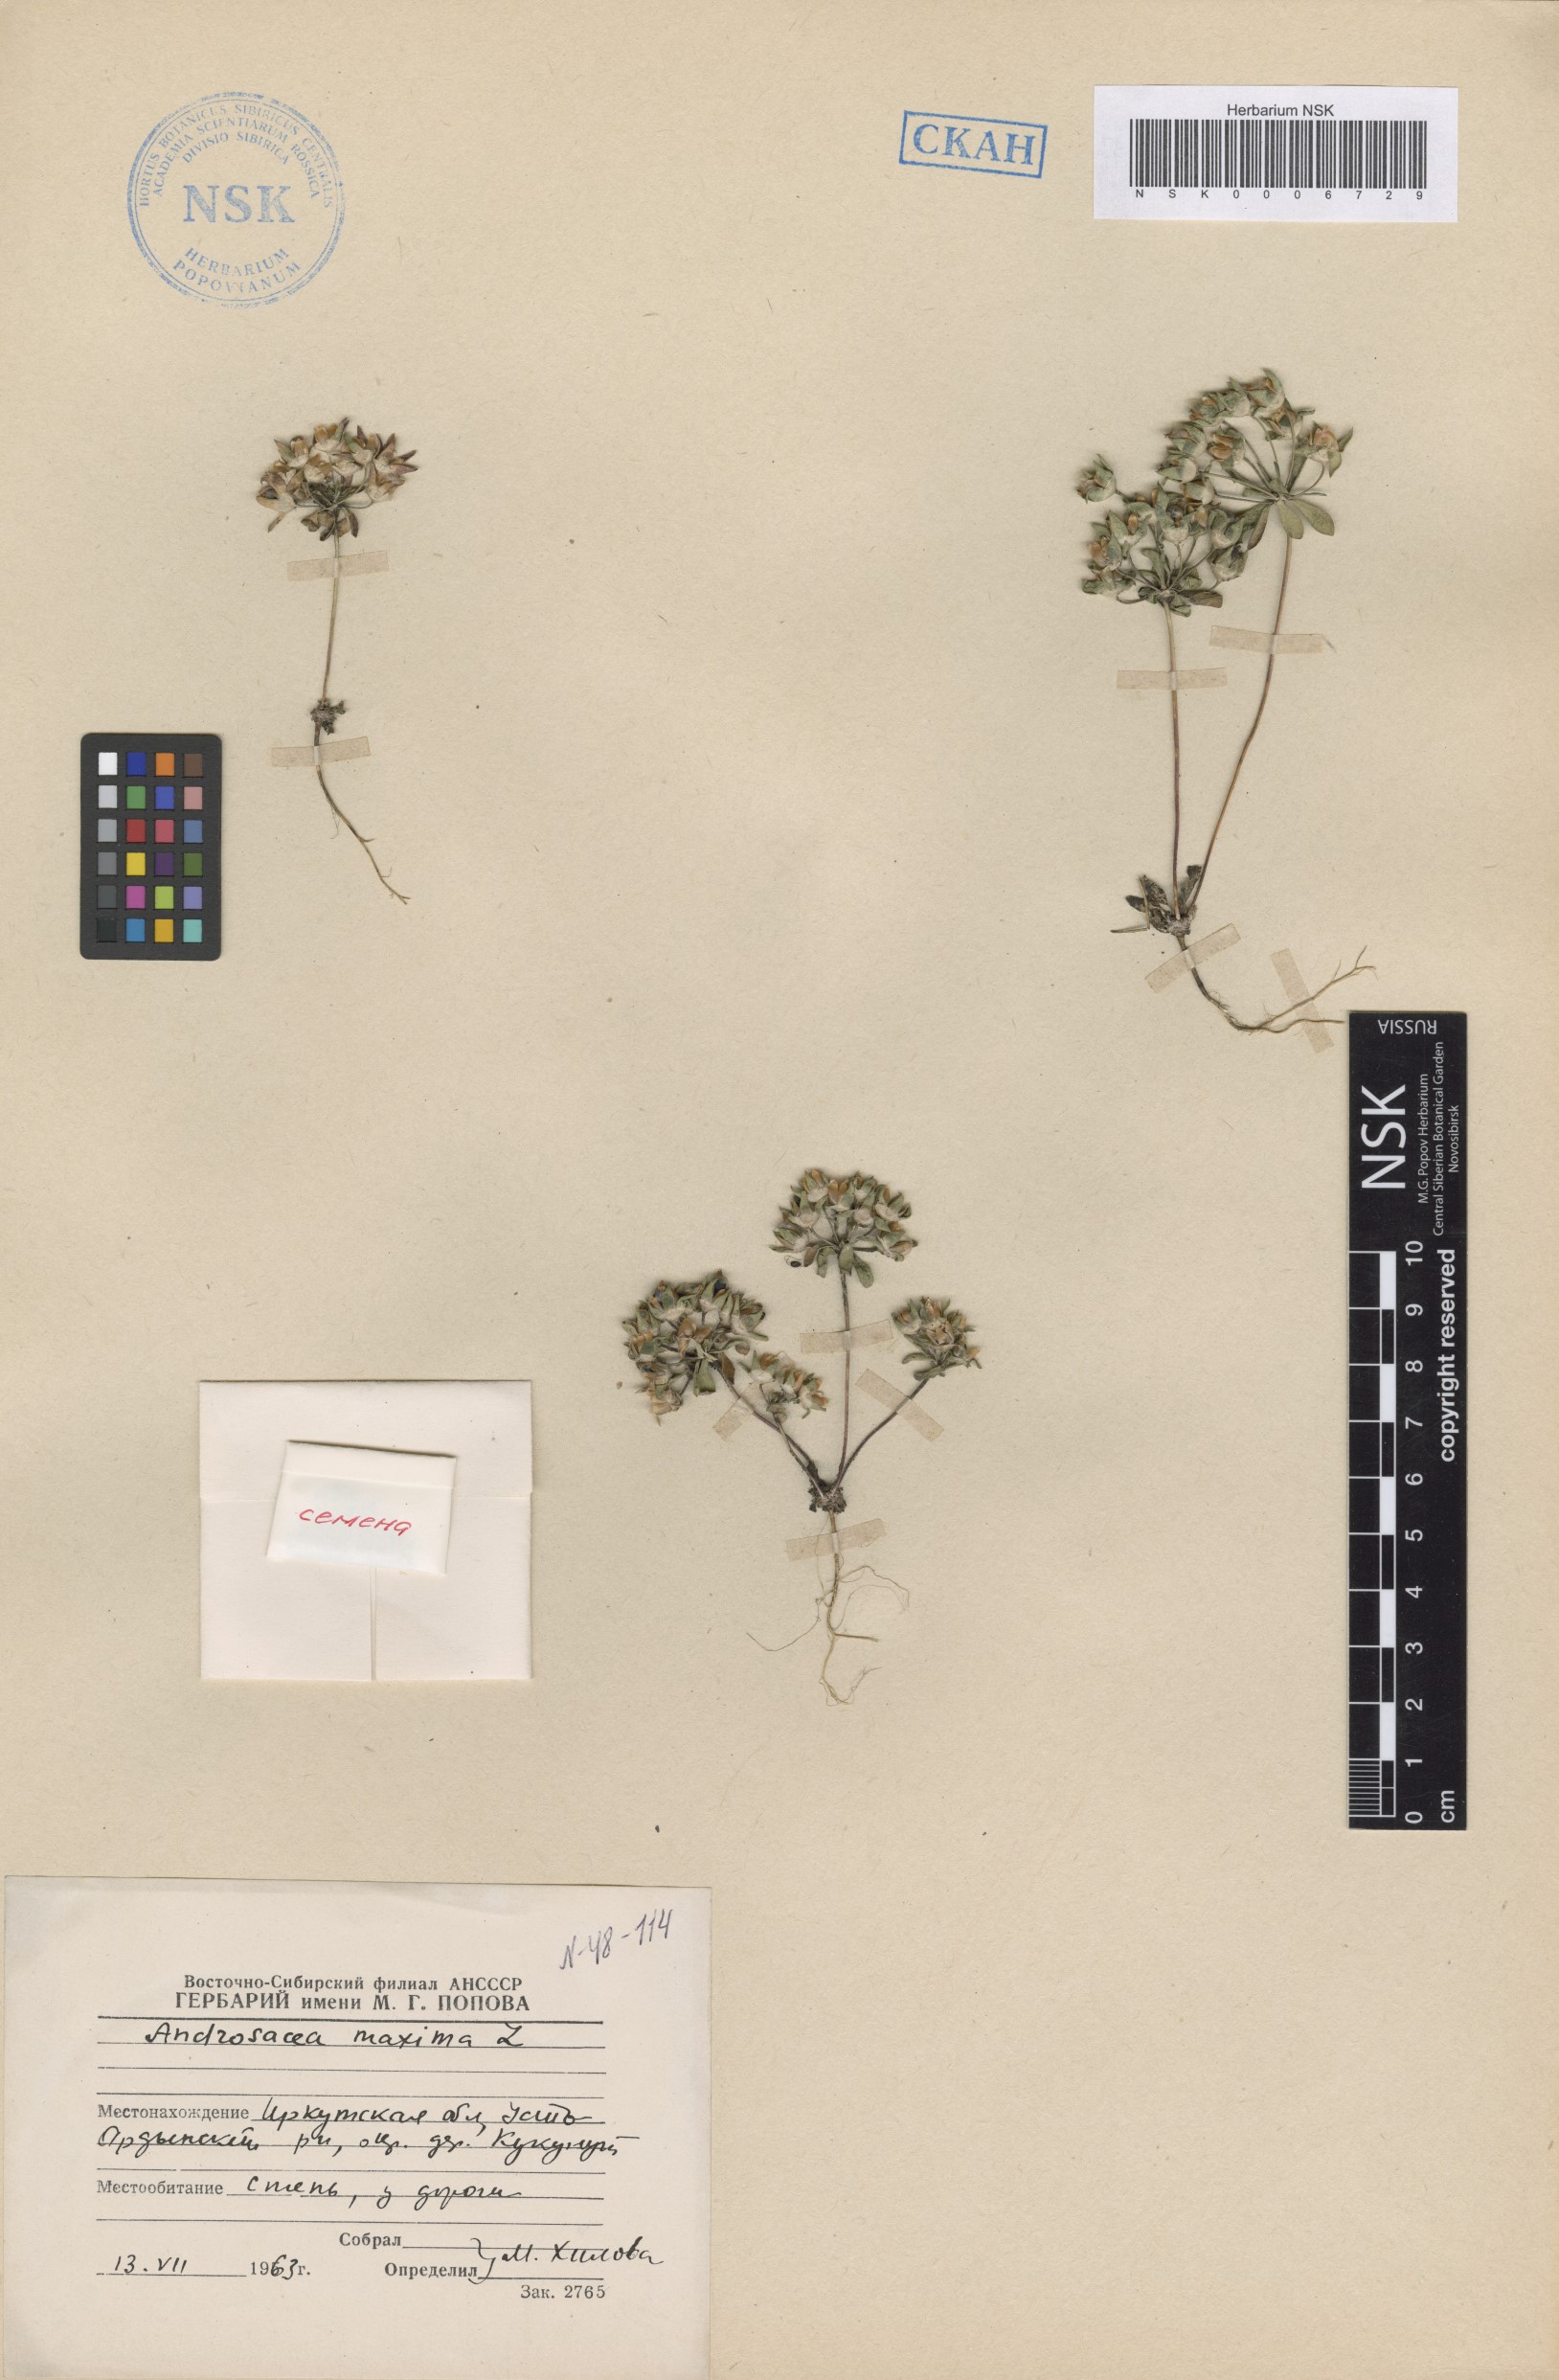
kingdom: Plantae
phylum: Tracheophyta
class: Magnoliopsida
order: Ericales
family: Primulaceae
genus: Androsace
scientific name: Androsace maxima
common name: Annual androsace
